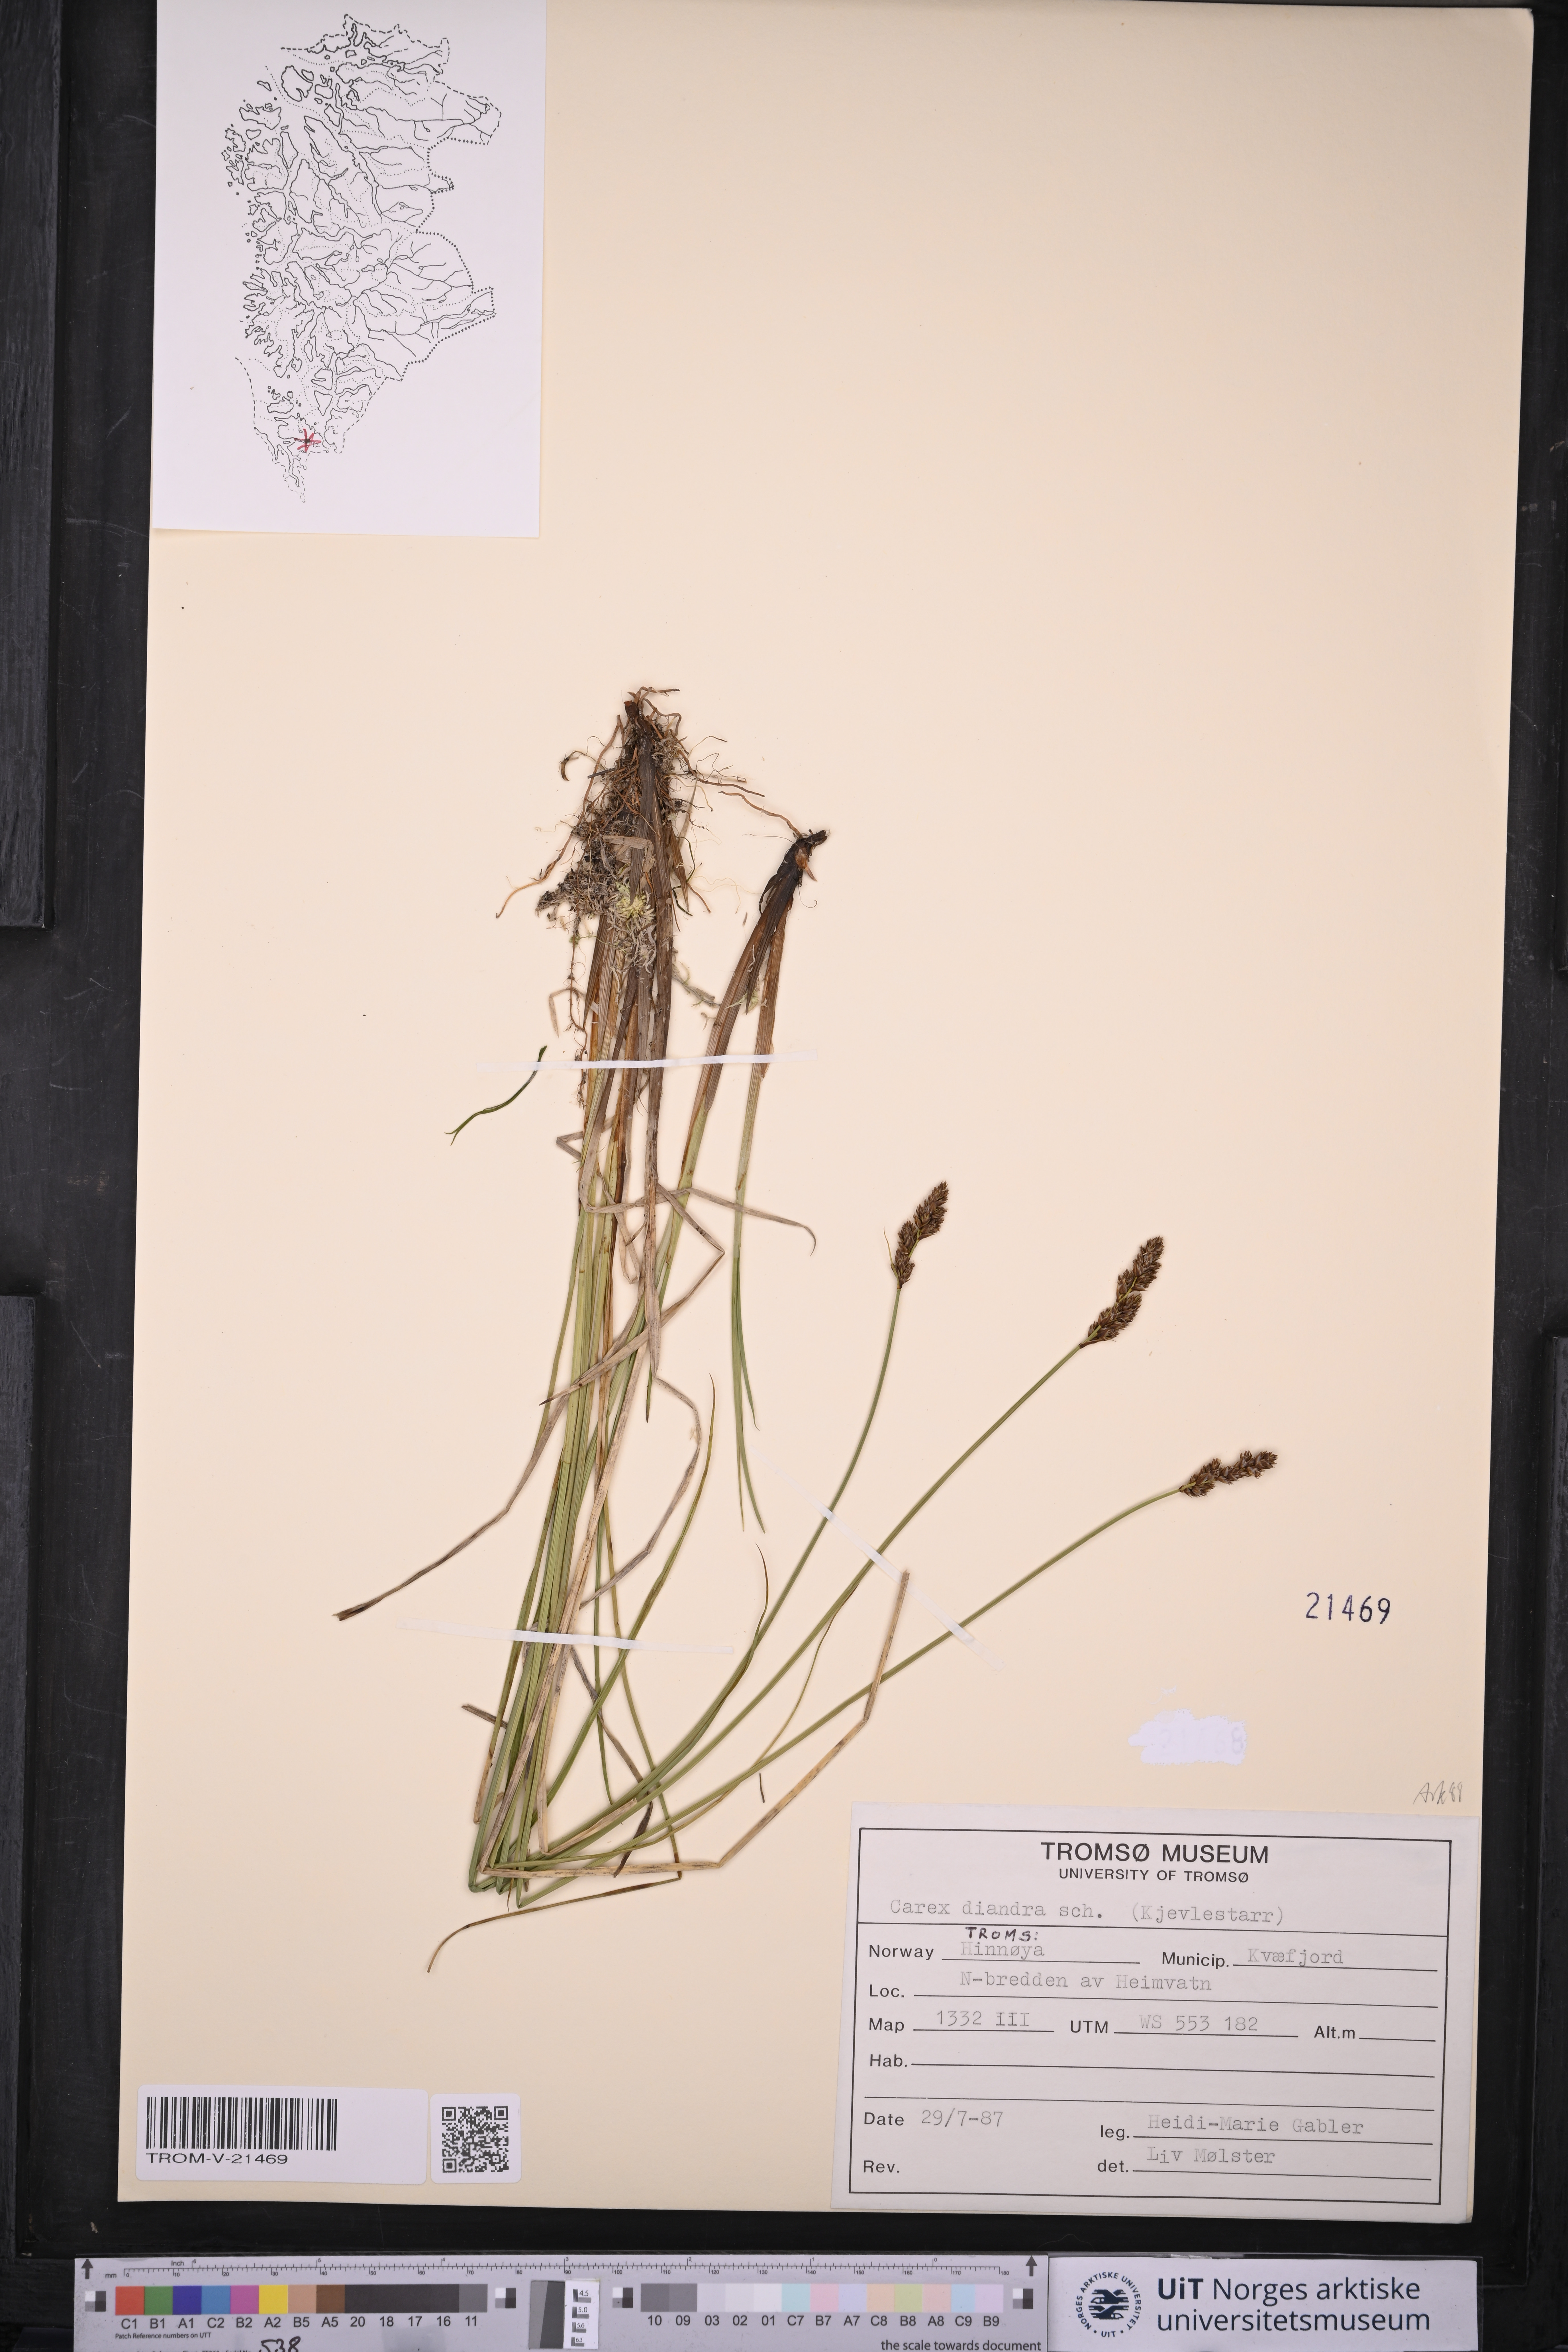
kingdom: Plantae
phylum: Tracheophyta
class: Liliopsida
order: Poales
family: Cyperaceae
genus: Carex
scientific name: Carex diandra
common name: Lesser tussock-sedge
